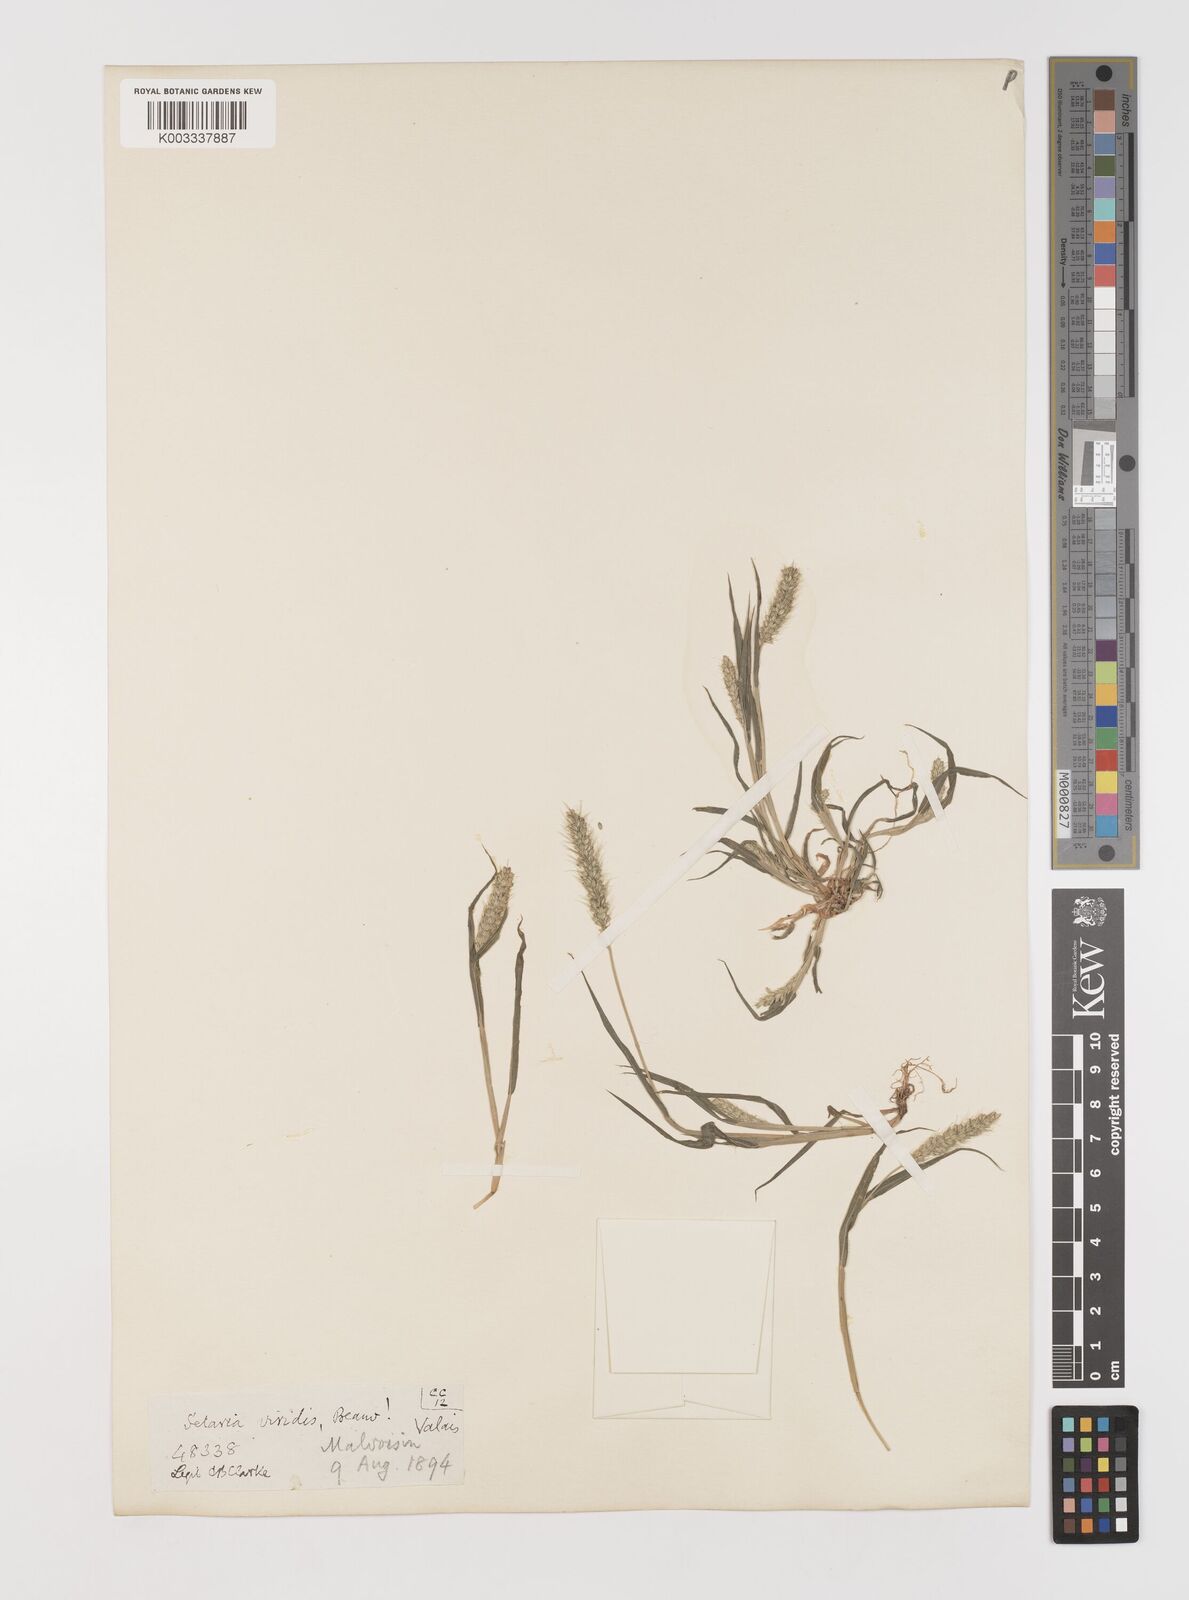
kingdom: Plantae
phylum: Tracheophyta
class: Liliopsida
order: Poales
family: Poaceae
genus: Setaria
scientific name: Setaria viridis
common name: Green bristlegrass
